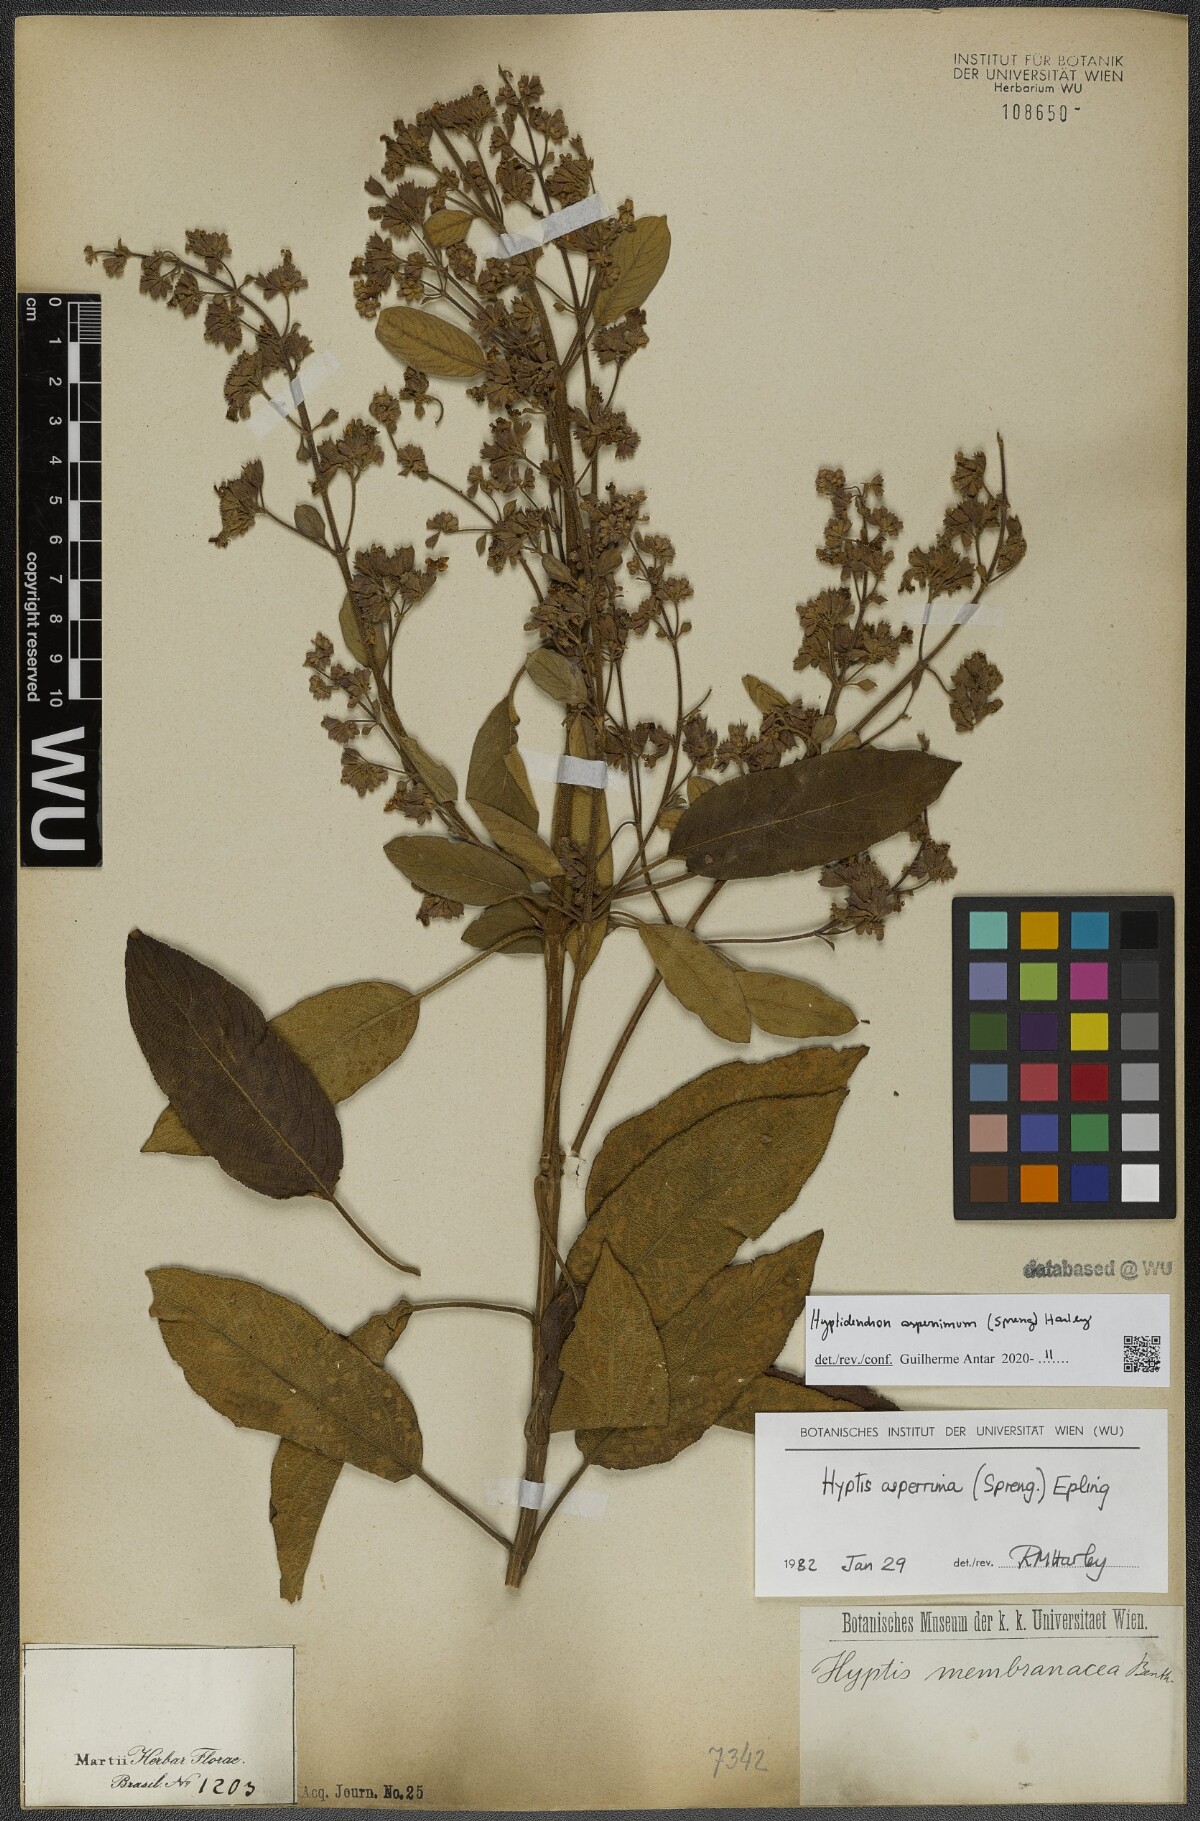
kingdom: Plantae
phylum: Tracheophyta
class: Magnoliopsida
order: Lamiales
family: Lamiaceae
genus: Hyptidendron
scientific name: Hyptidendron asperrimum
